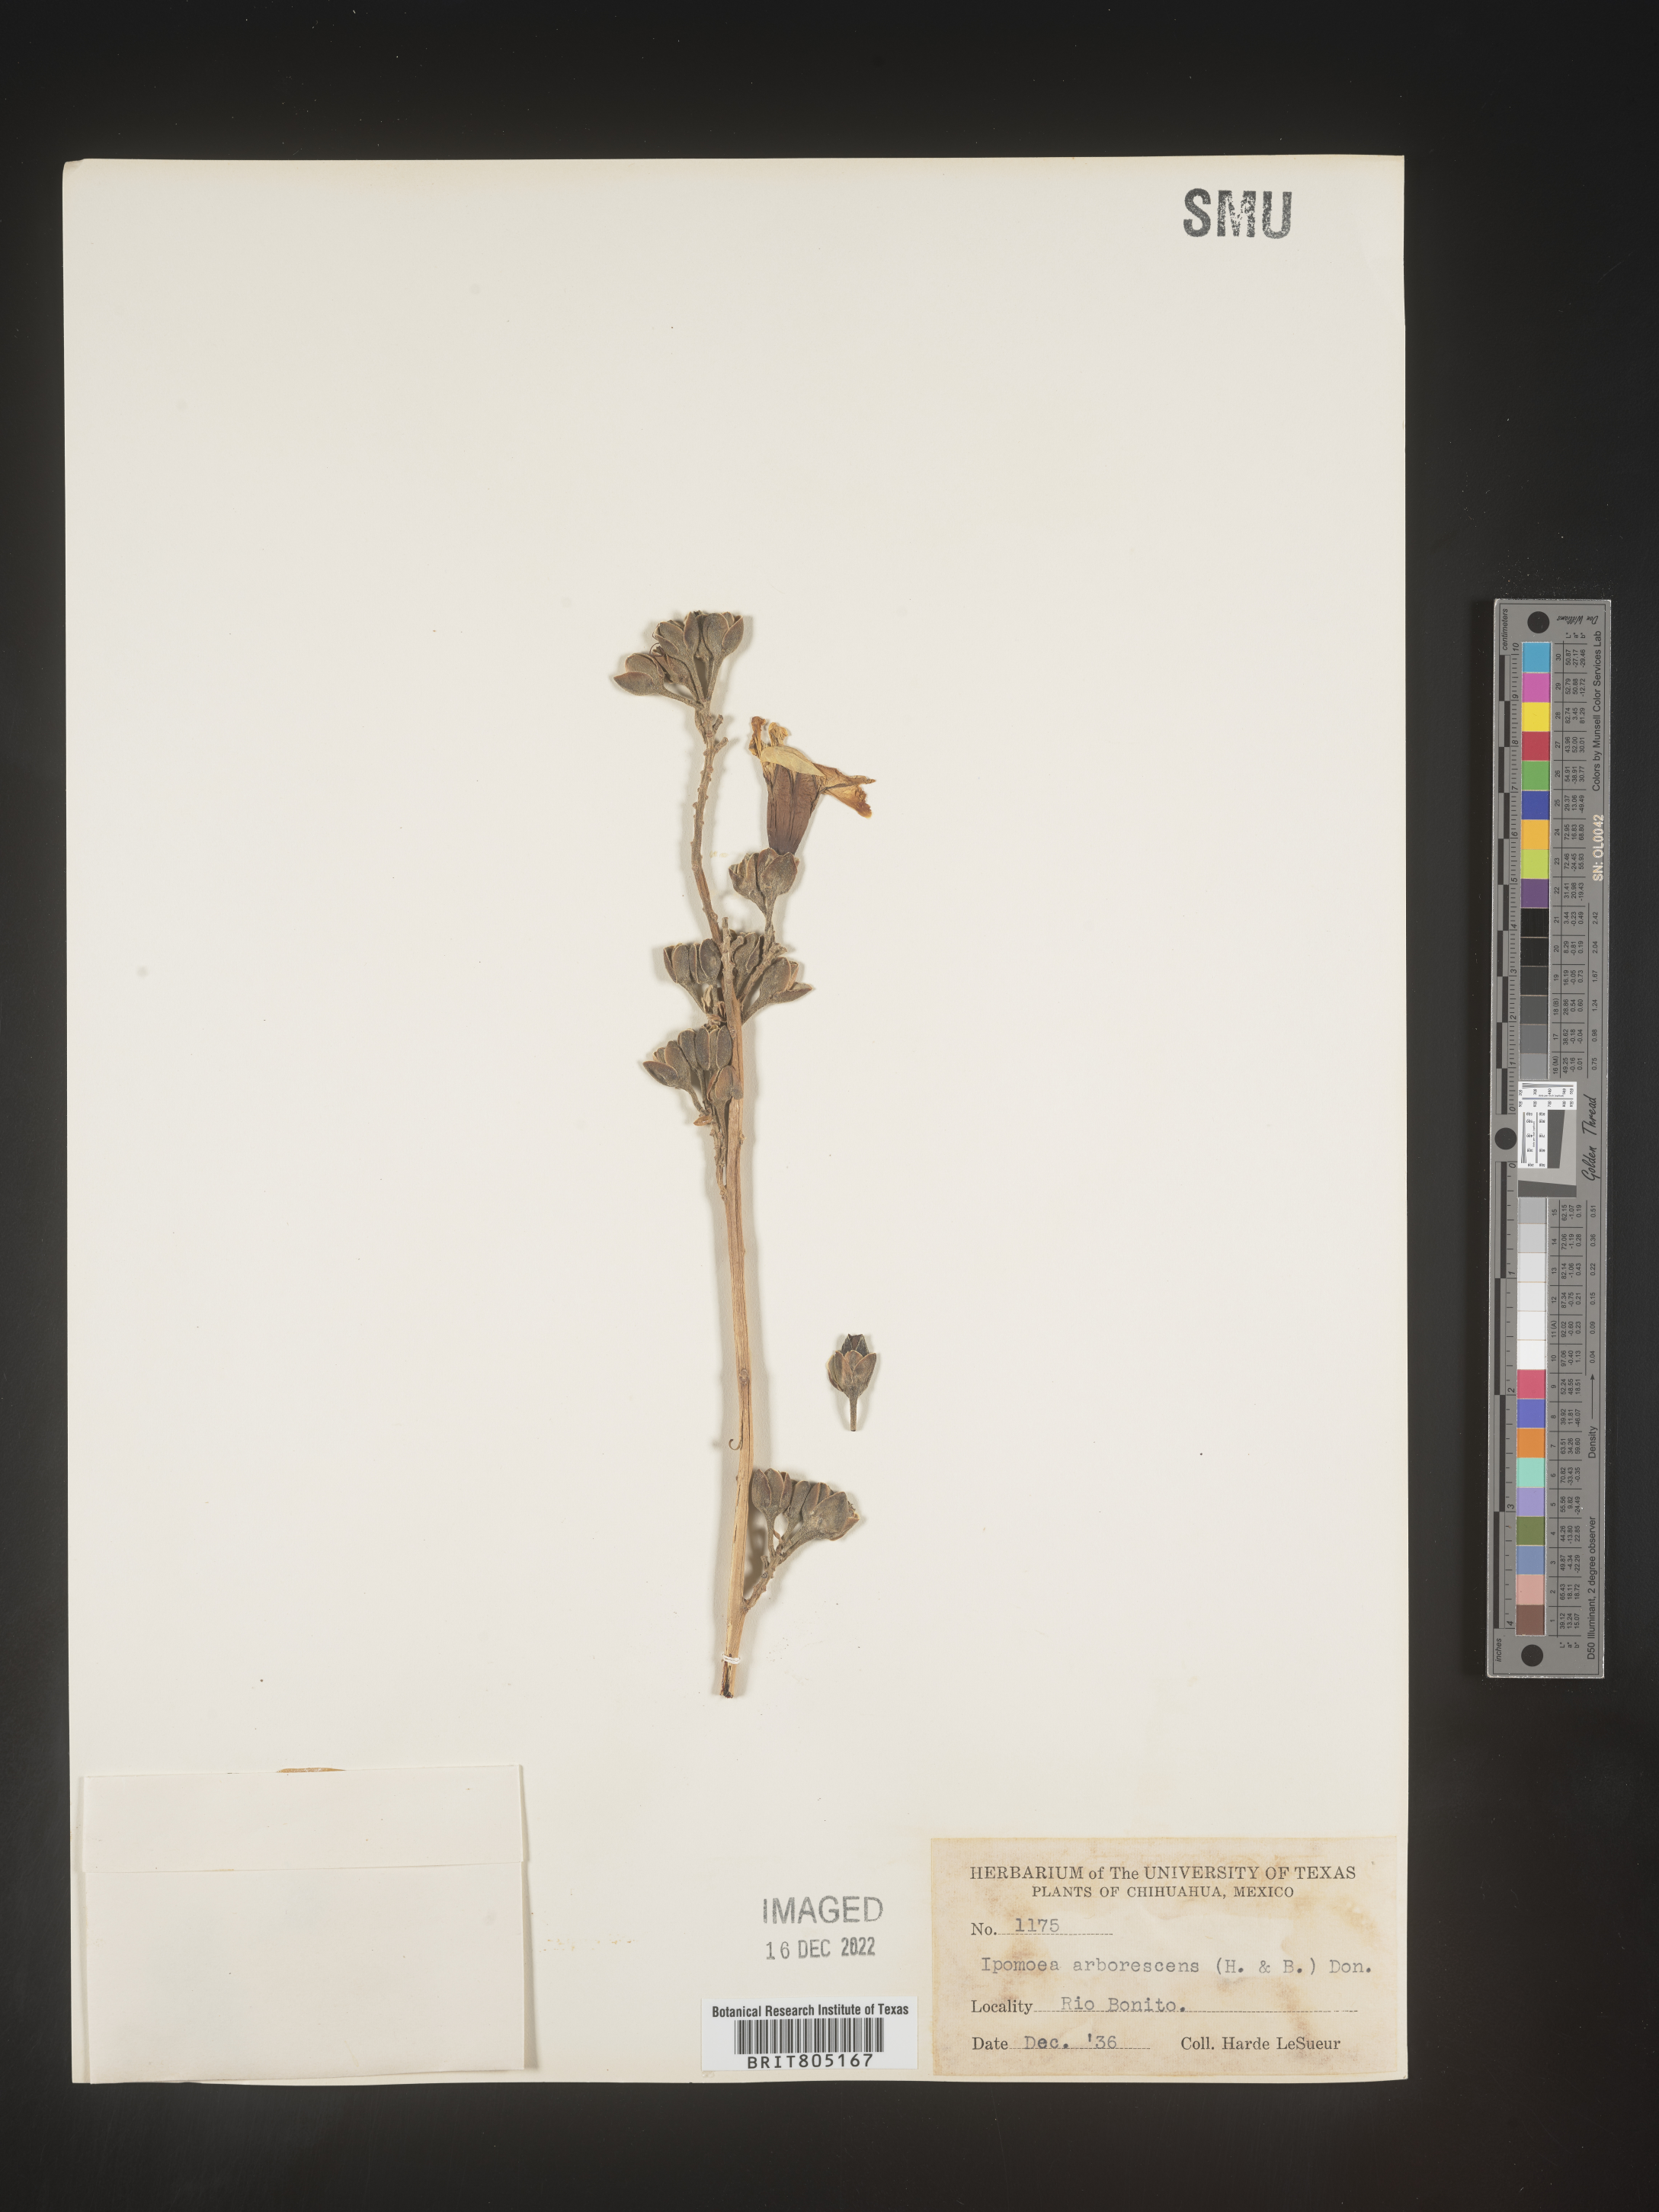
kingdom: Plantae
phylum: Tracheophyta
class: Magnoliopsida
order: Solanales
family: Convolvulaceae
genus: Ipomoea
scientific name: Ipomoea
